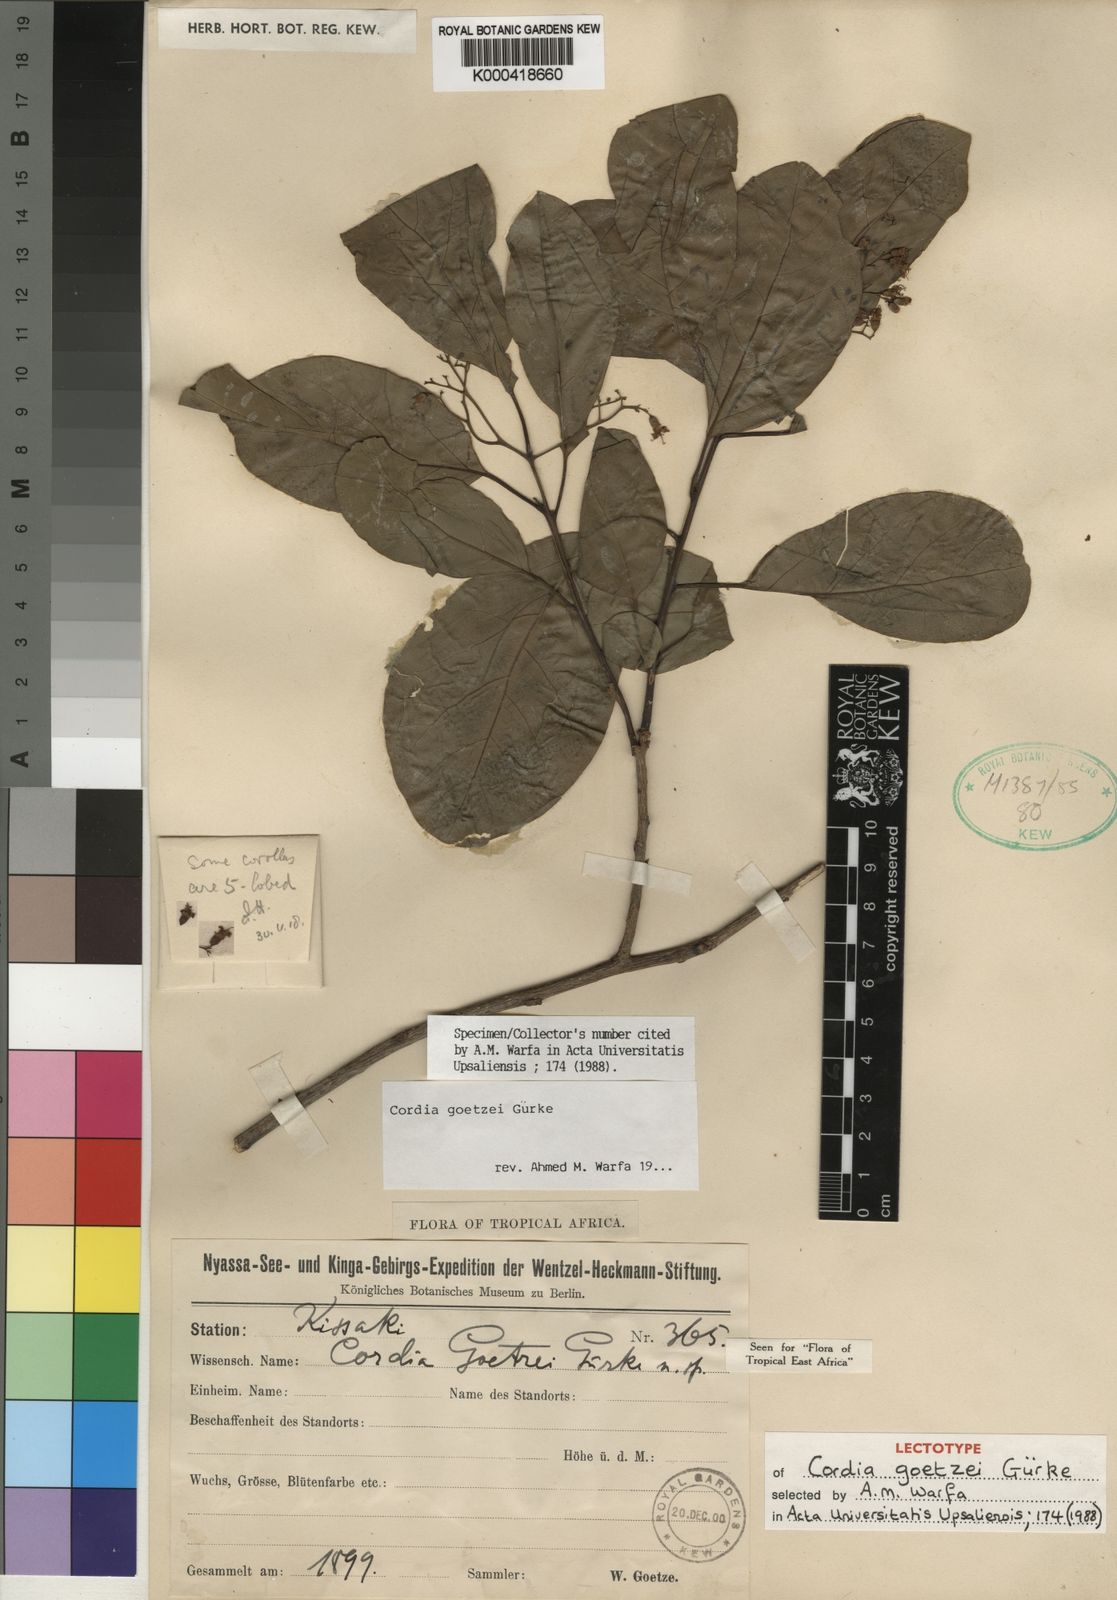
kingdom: Plantae
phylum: Tracheophyta
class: Magnoliopsida
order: Boraginales
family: Cordiaceae
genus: Cordia
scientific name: Cordia
